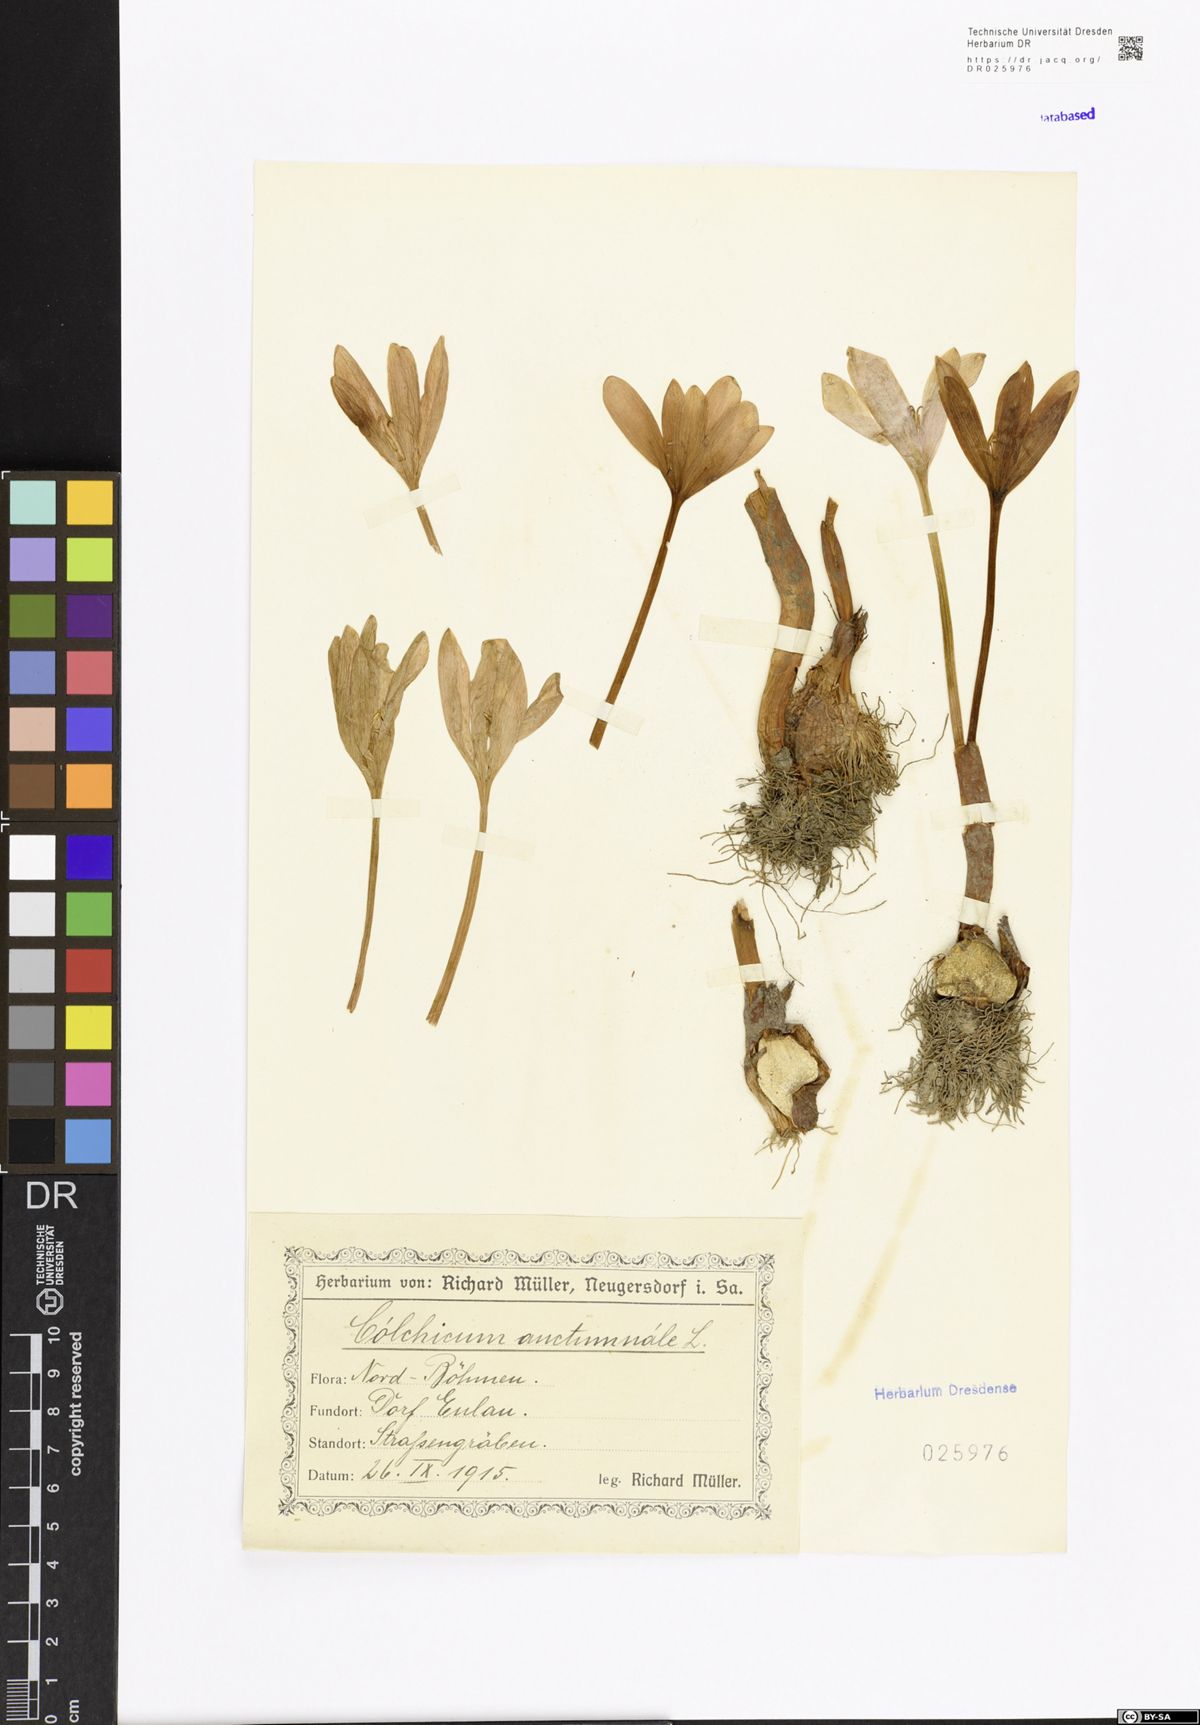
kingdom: Plantae
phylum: Tracheophyta
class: Liliopsida
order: Liliales
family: Colchicaceae
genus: Colchicum
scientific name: Colchicum autumnale
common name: Autumn crocus
